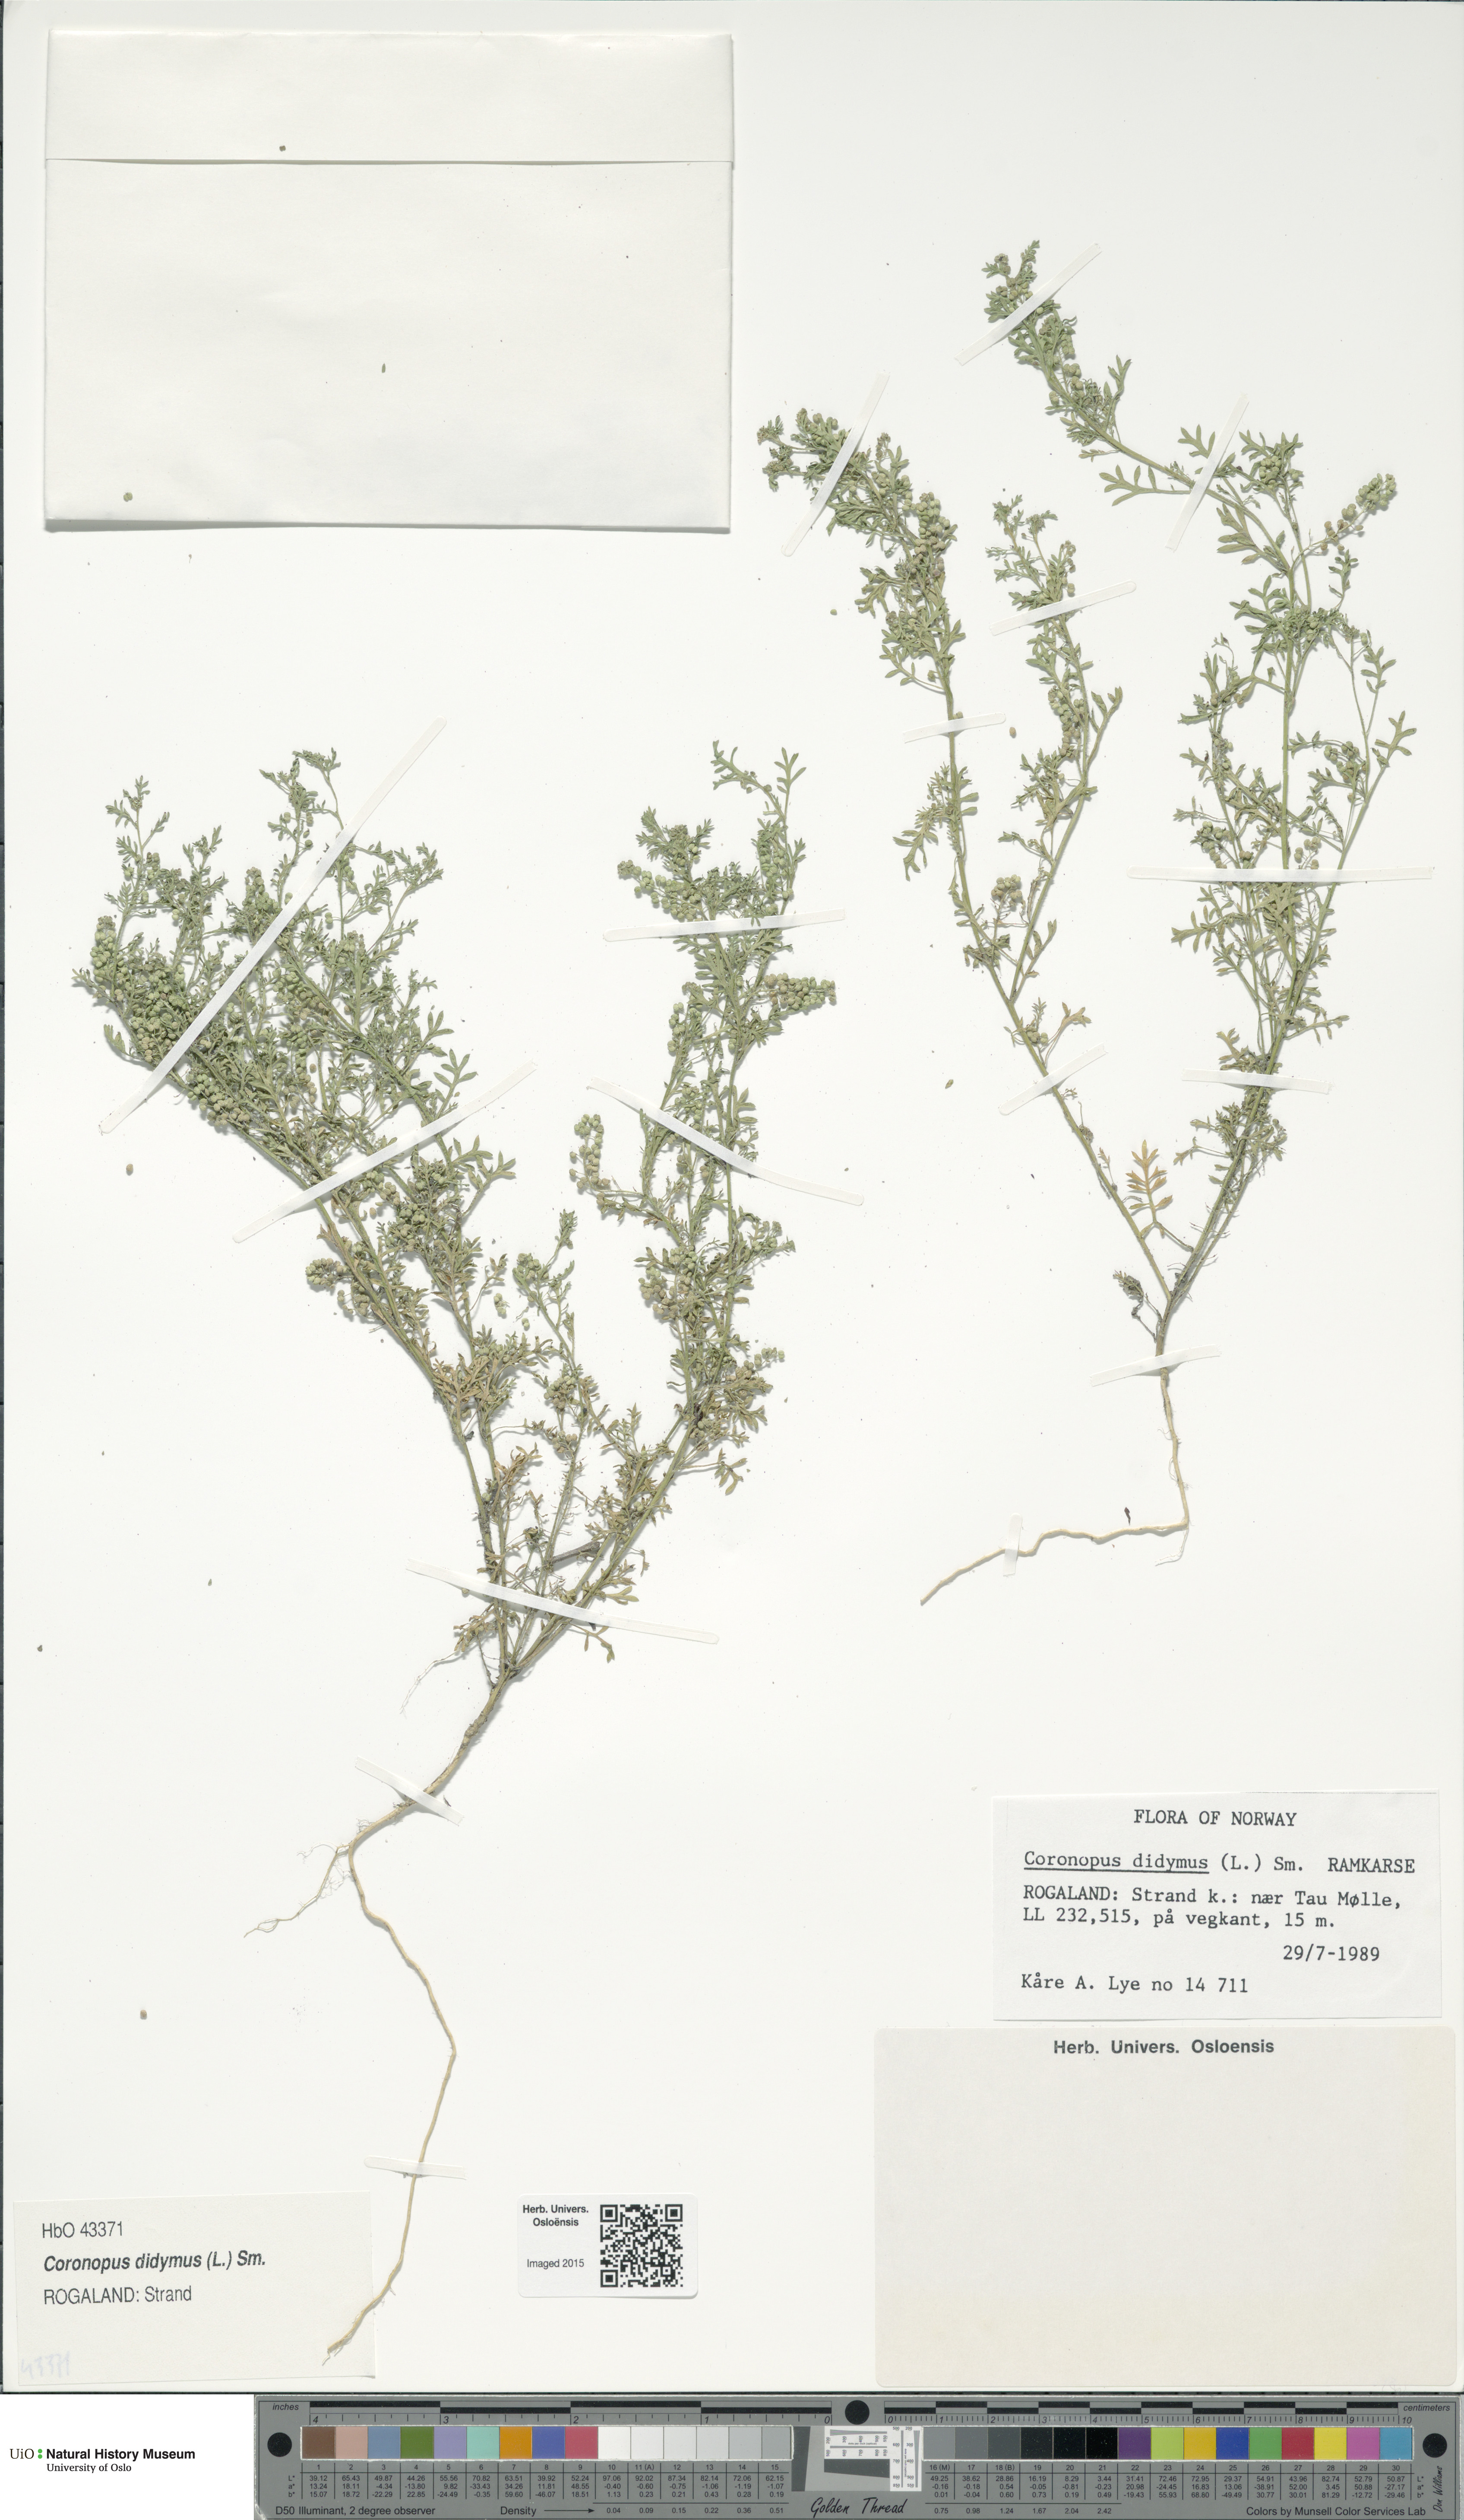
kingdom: Plantae
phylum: Tracheophyta
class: Magnoliopsida
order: Brassicales
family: Brassicaceae
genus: Lepidium
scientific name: Lepidium didymum
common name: Lesser swinecress
